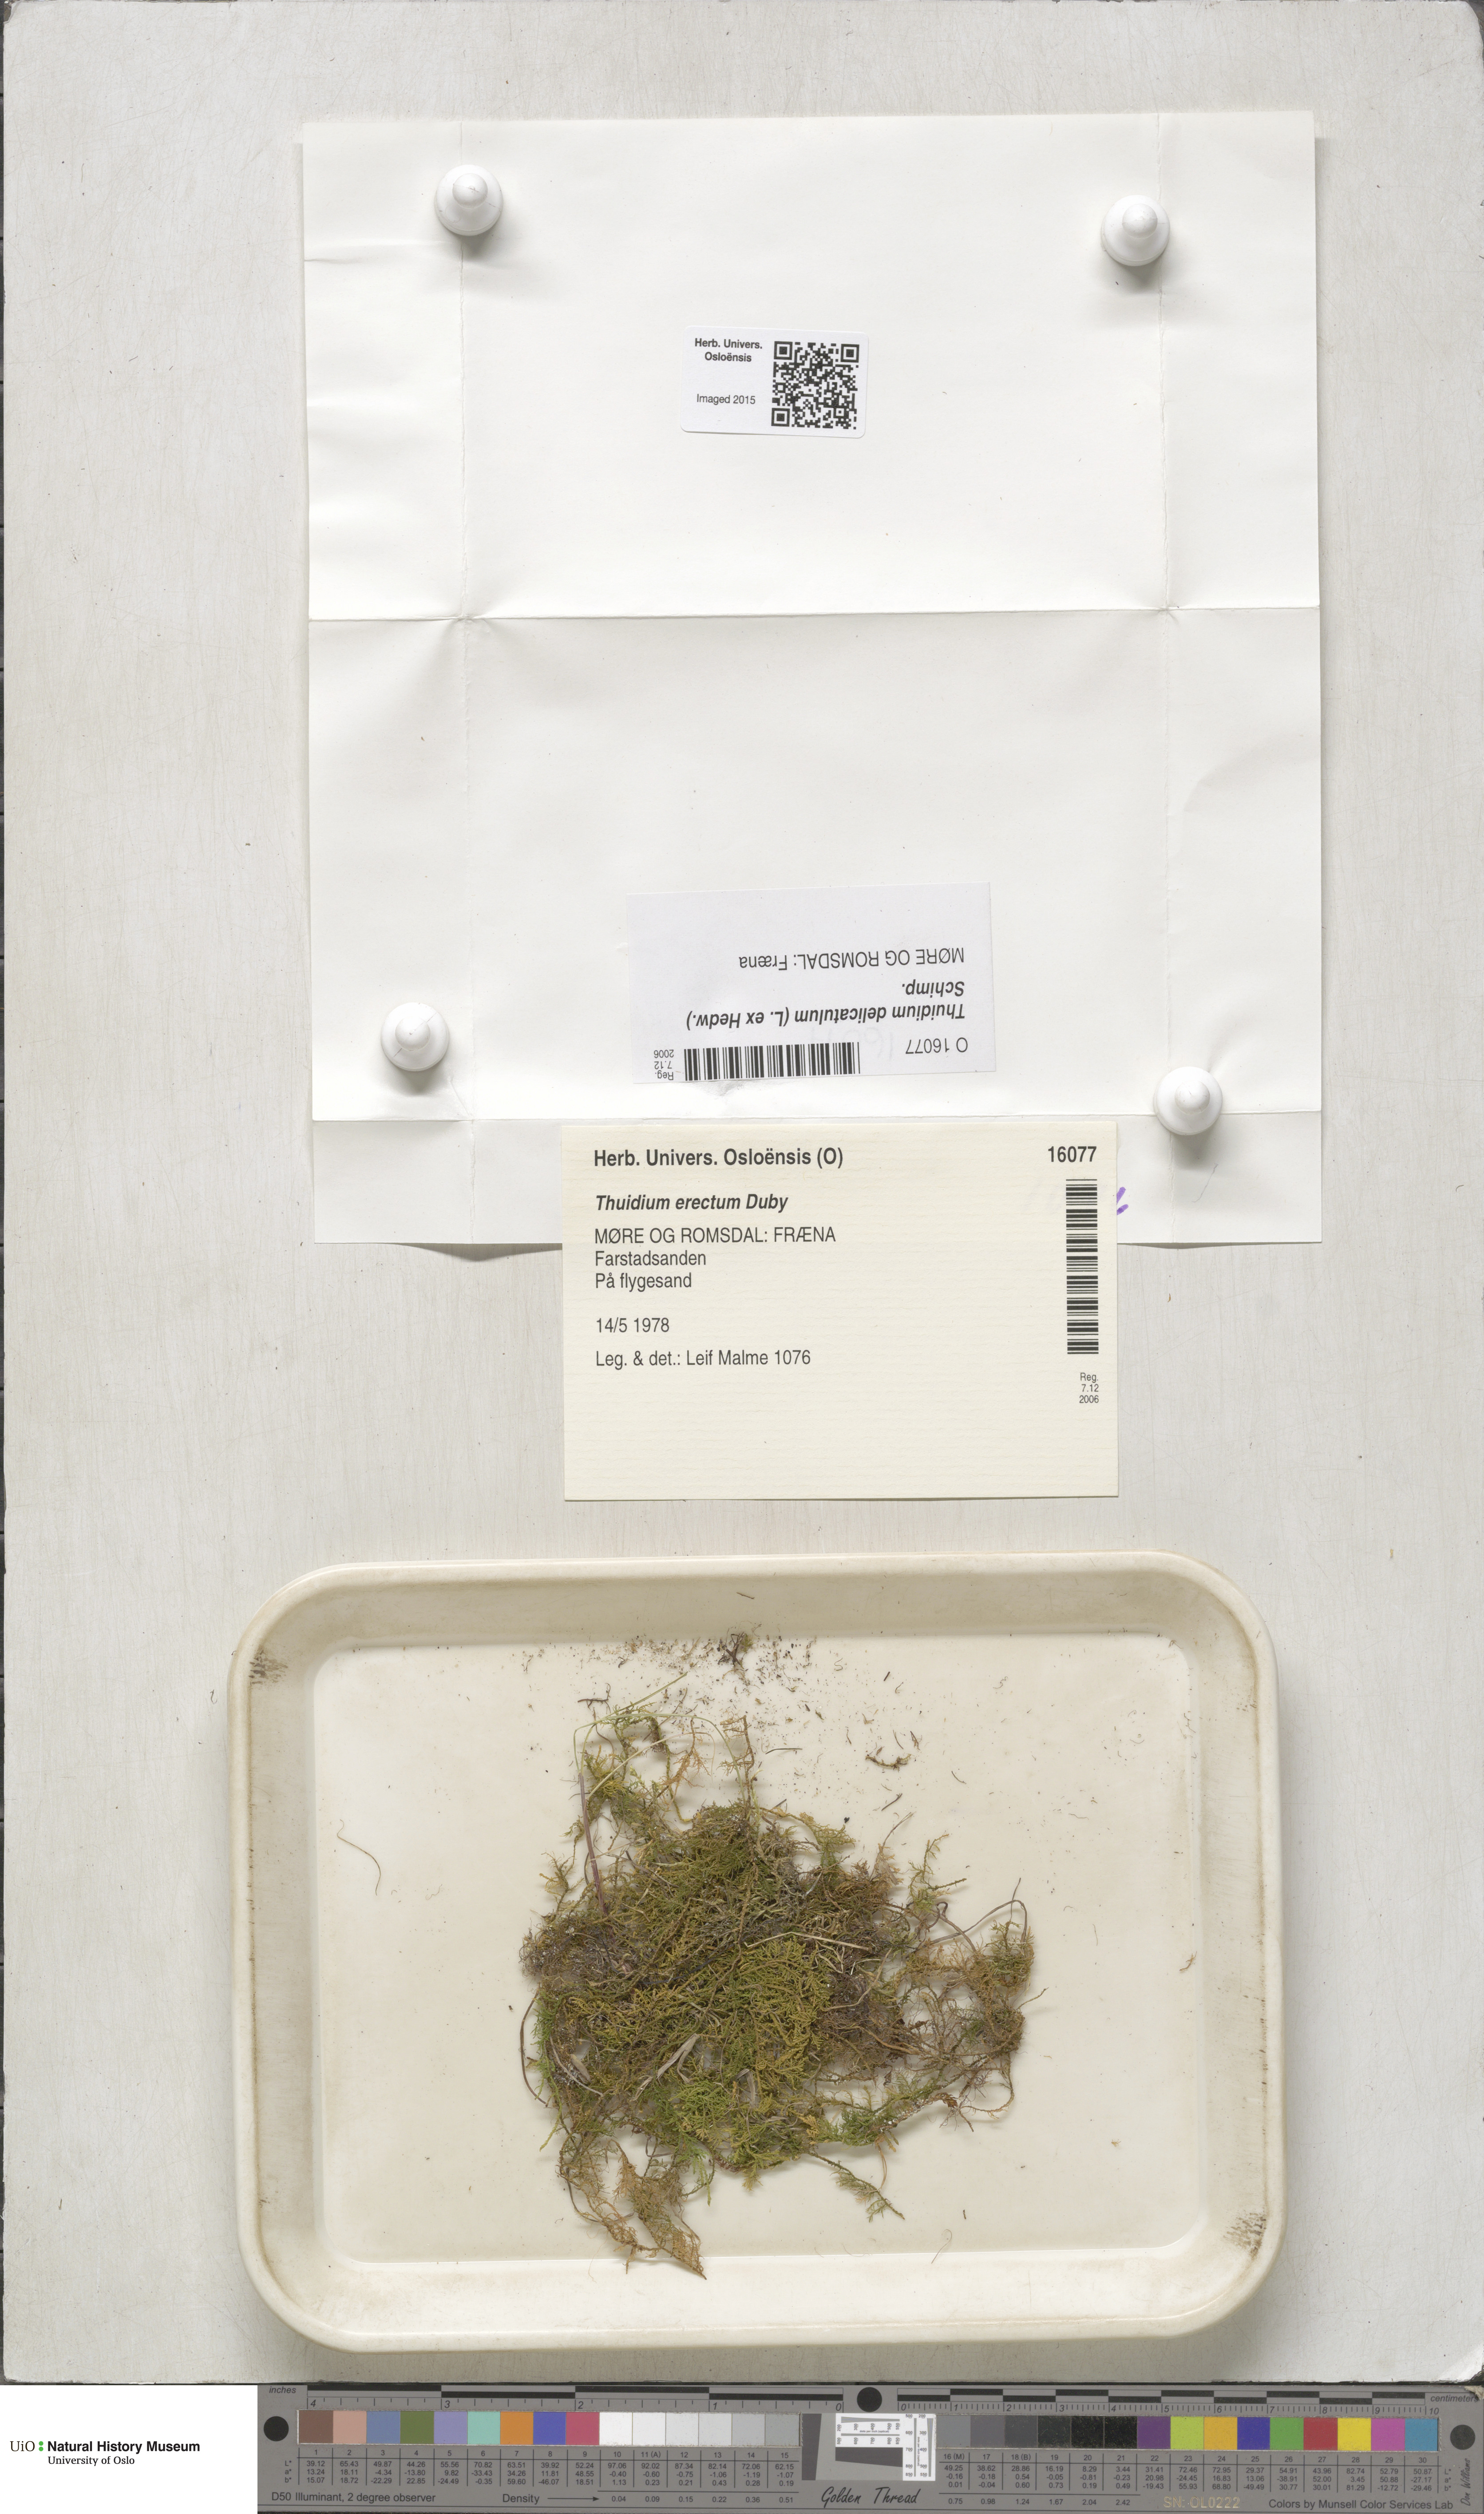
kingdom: Plantae
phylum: Bryophyta
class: Bryopsida
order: Hypnales
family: Thuidiaceae
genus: Thuidium
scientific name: Thuidium delicatulum
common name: Delicate fern moss
